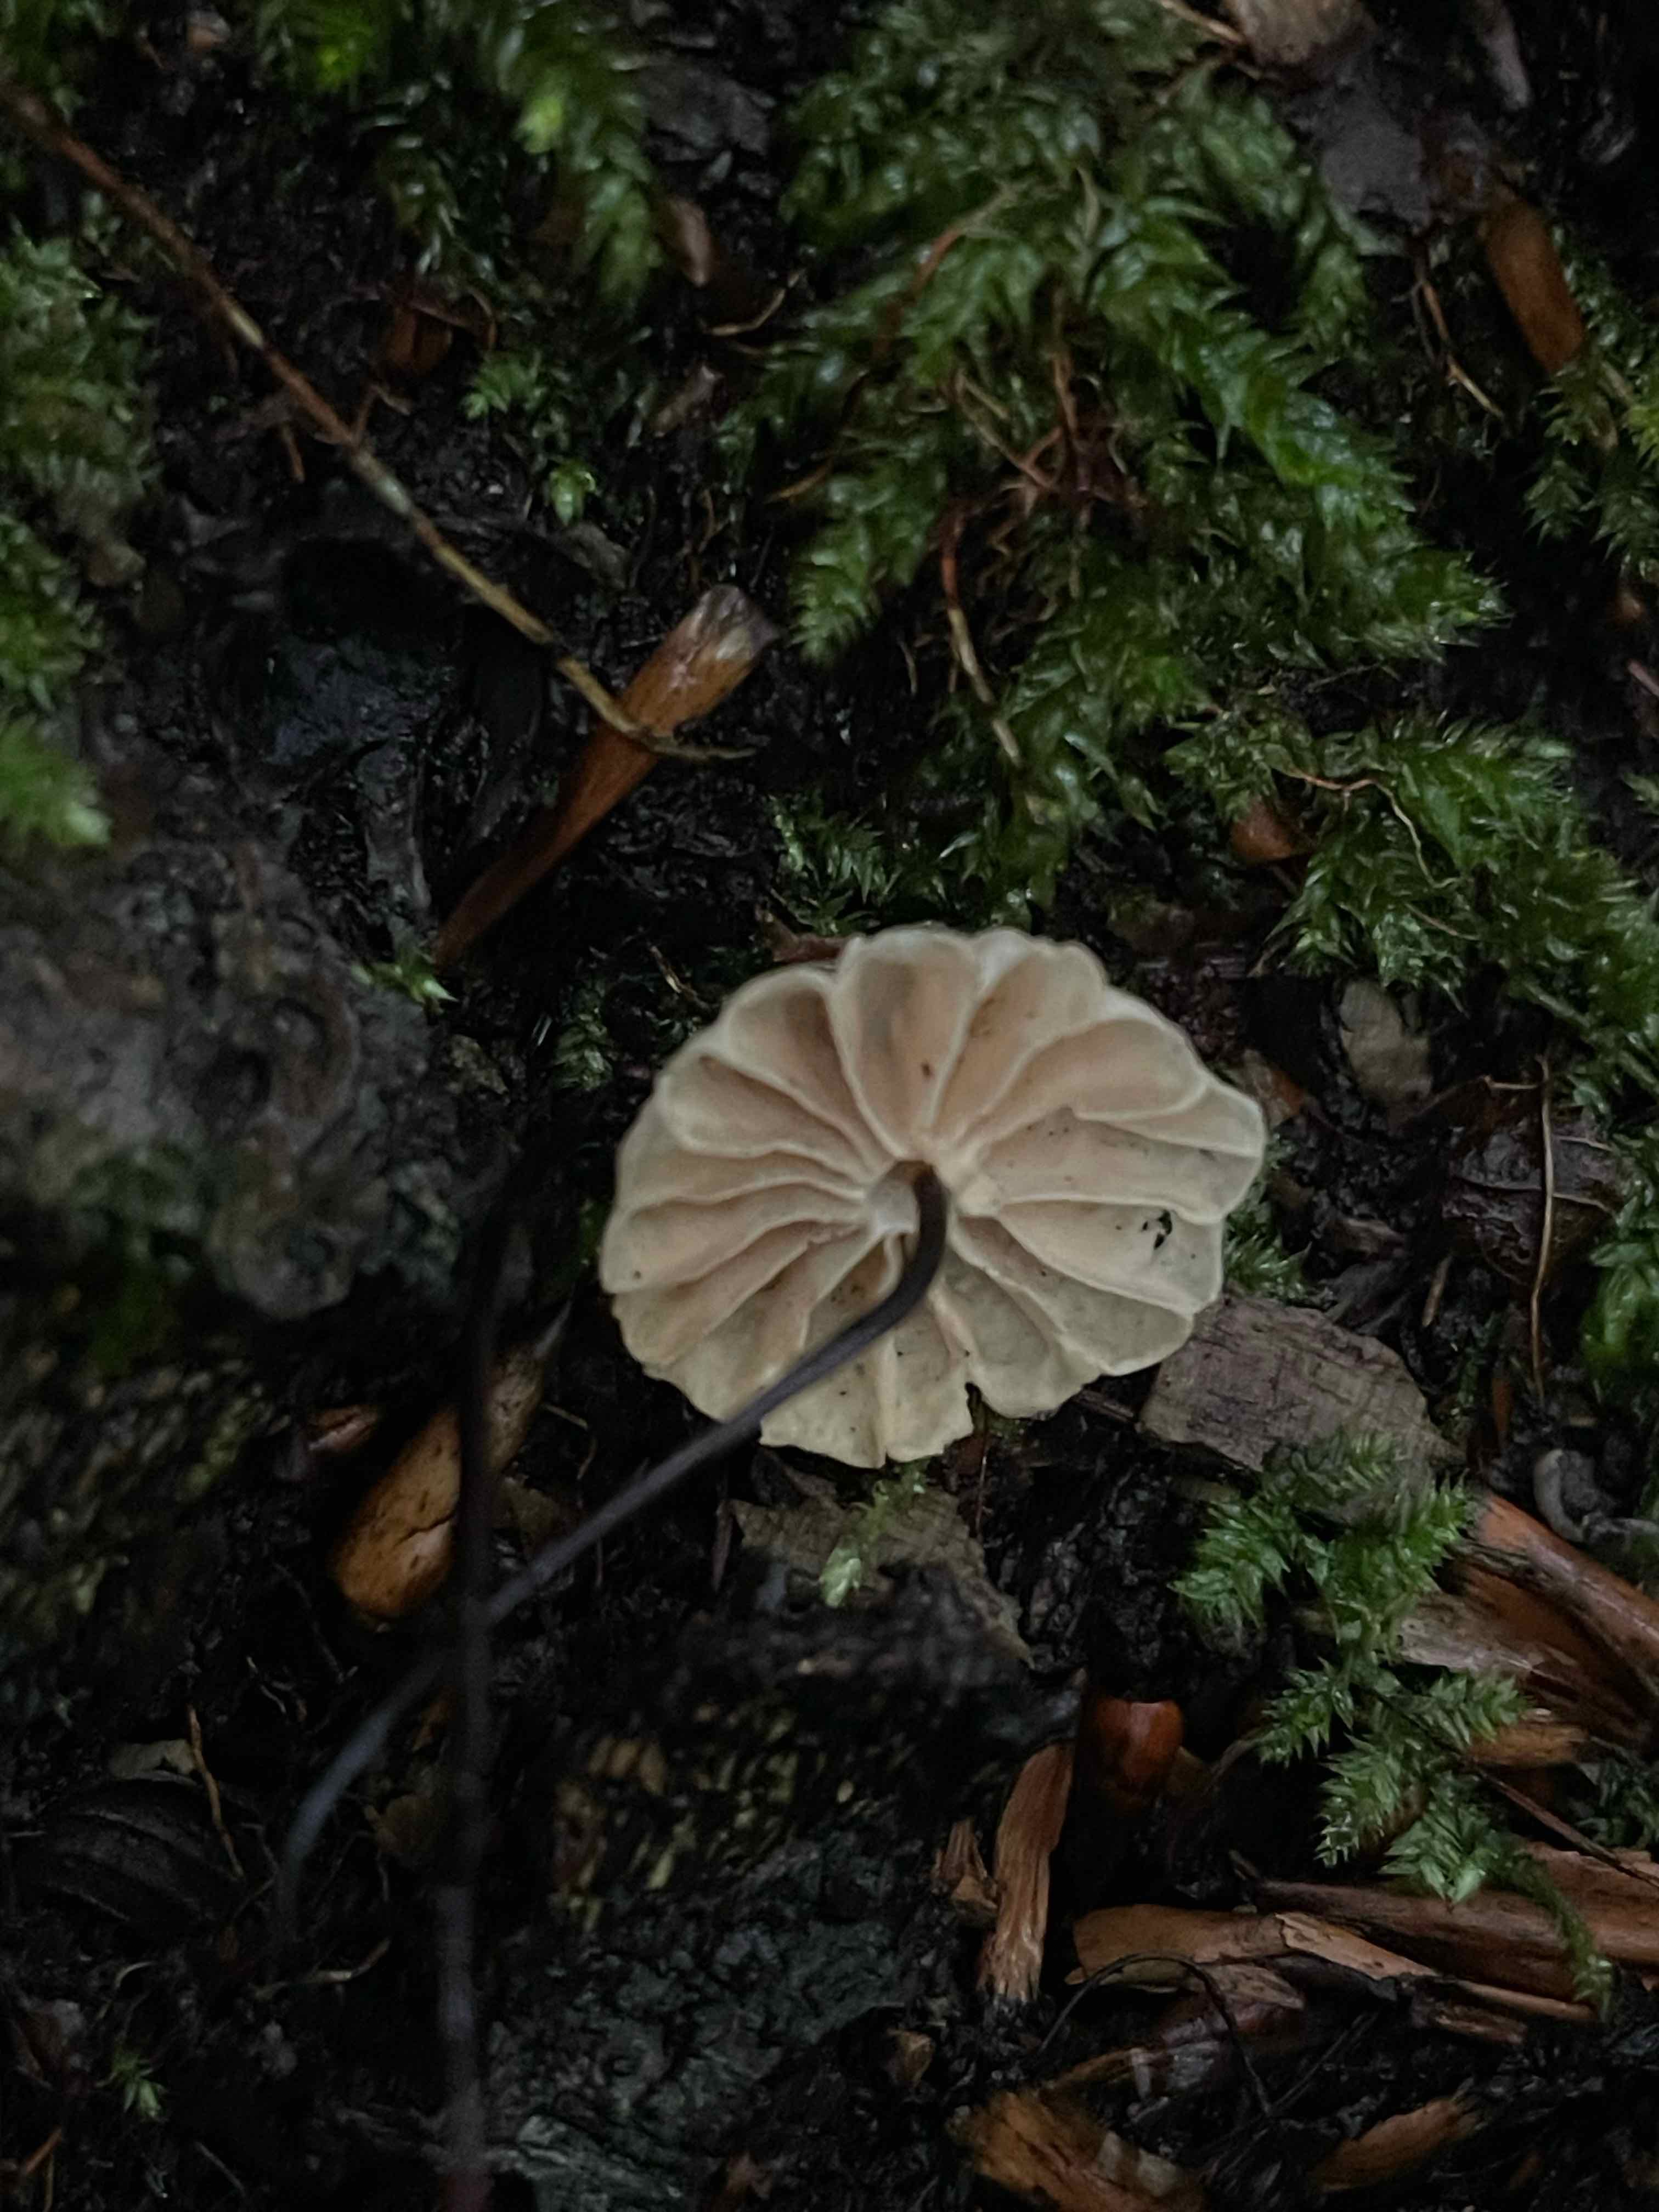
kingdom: Fungi
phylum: Basidiomycota
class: Agaricomycetes
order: Agaricales
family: Marasmiaceae
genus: Marasmius
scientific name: Marasmius rotula
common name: hjul-bruskhat
